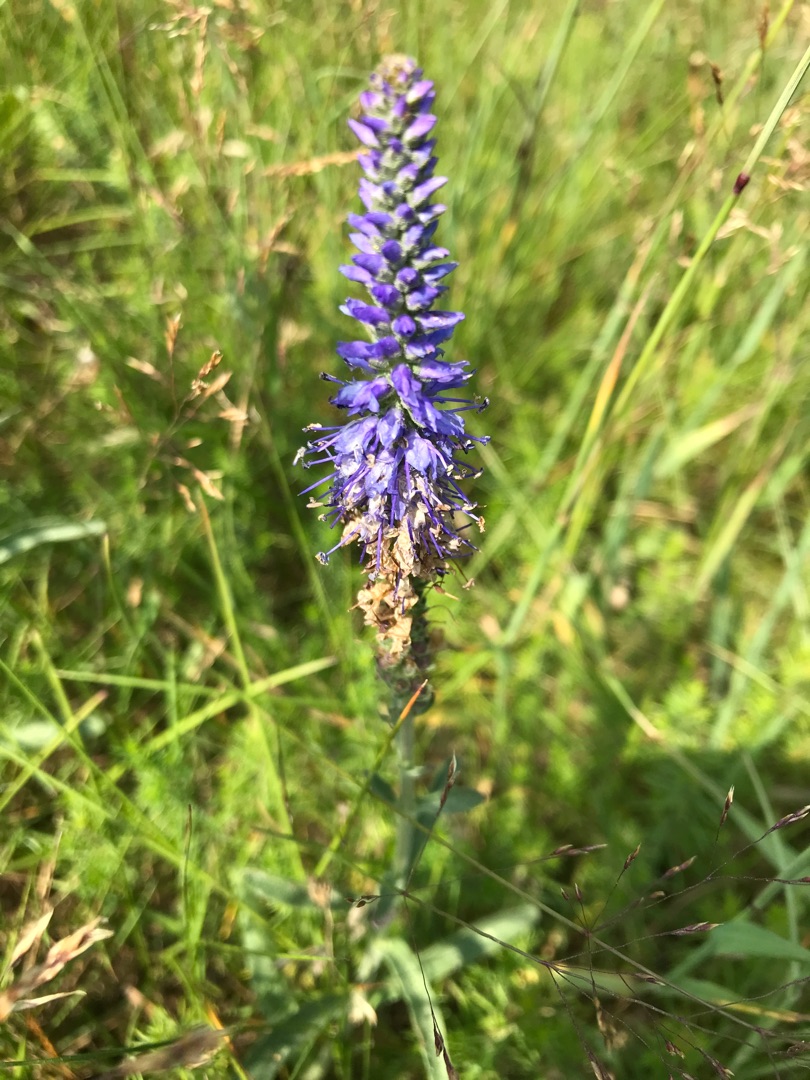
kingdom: Plantae
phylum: Tracheophyta
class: Magnoliopsida
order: Lamiales
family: Plantaginaceae
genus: Veronica
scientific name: Veronica spicata
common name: Aks-ærenpris
